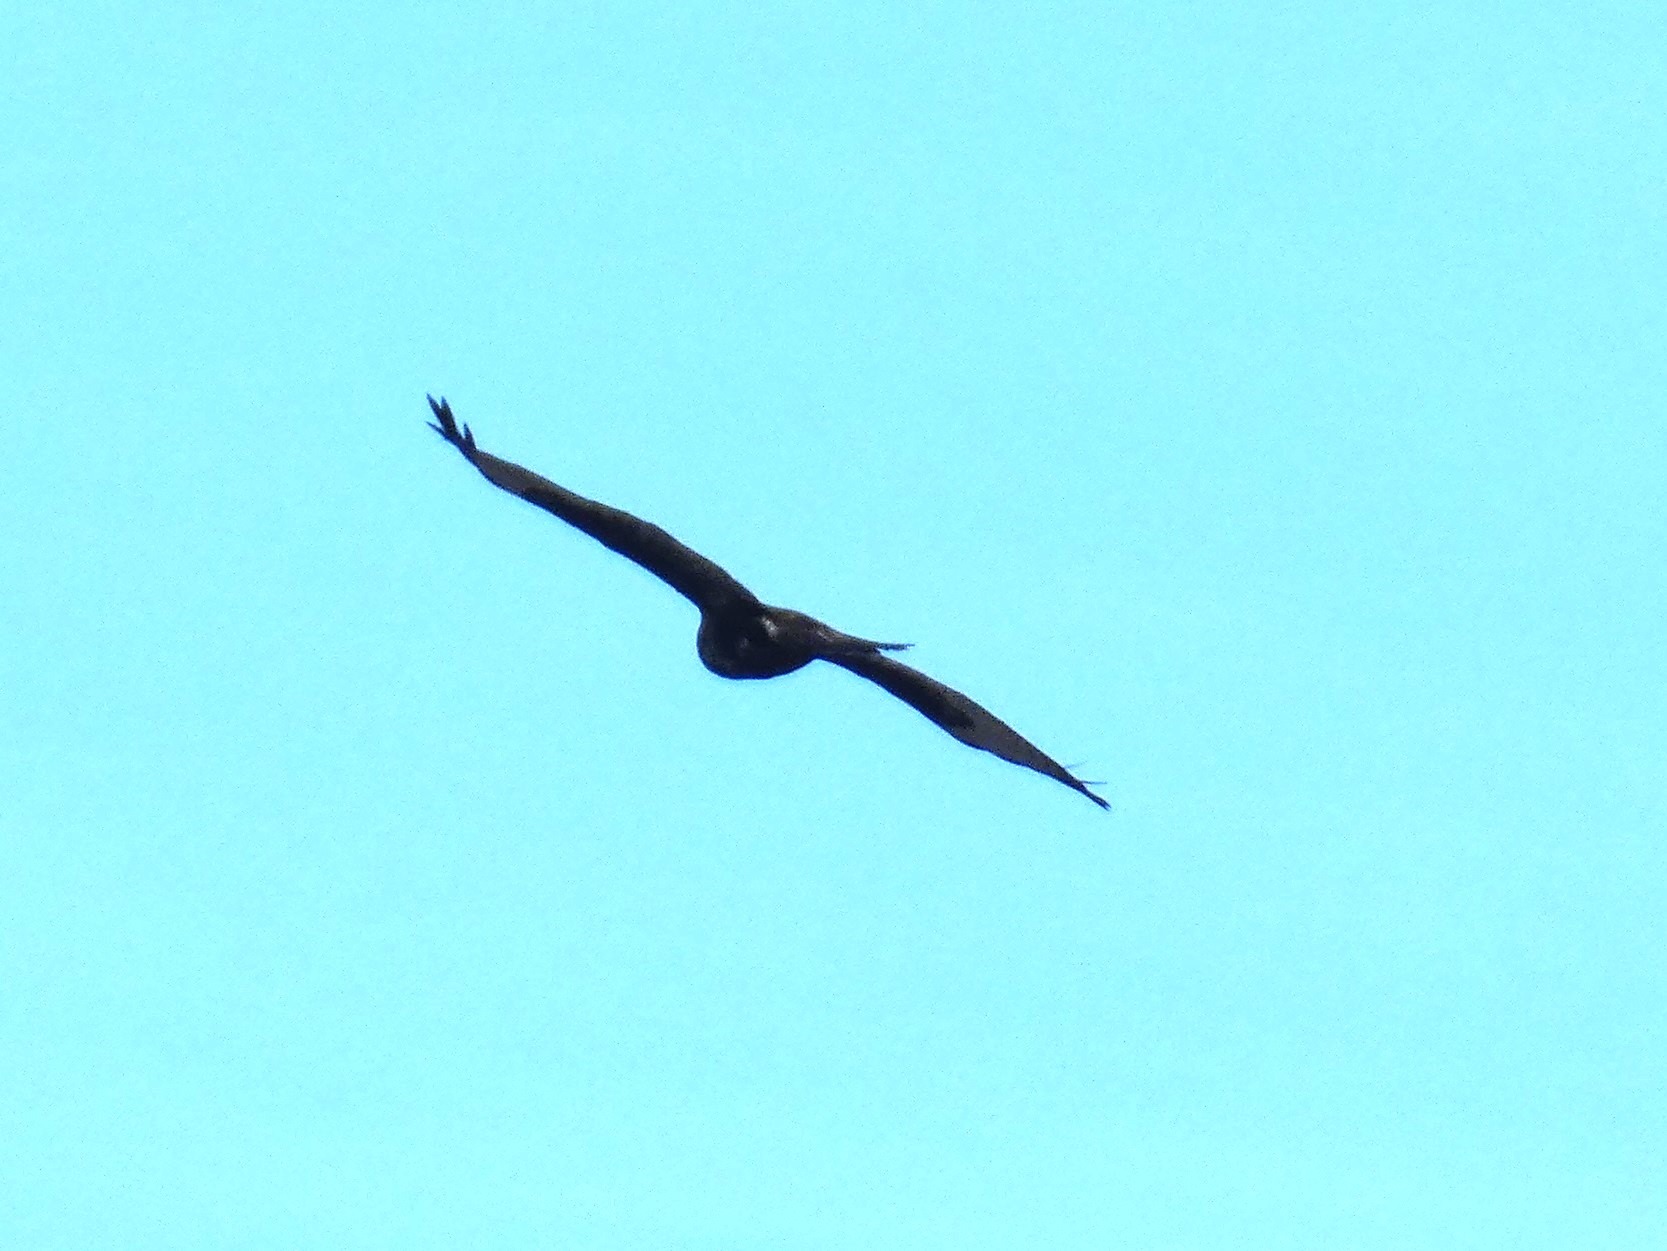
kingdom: Animalia
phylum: Chordata
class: Aves
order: Accipitriformes
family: Accipitridae
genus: Buteo
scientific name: Buteo buteo
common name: Musvåge
